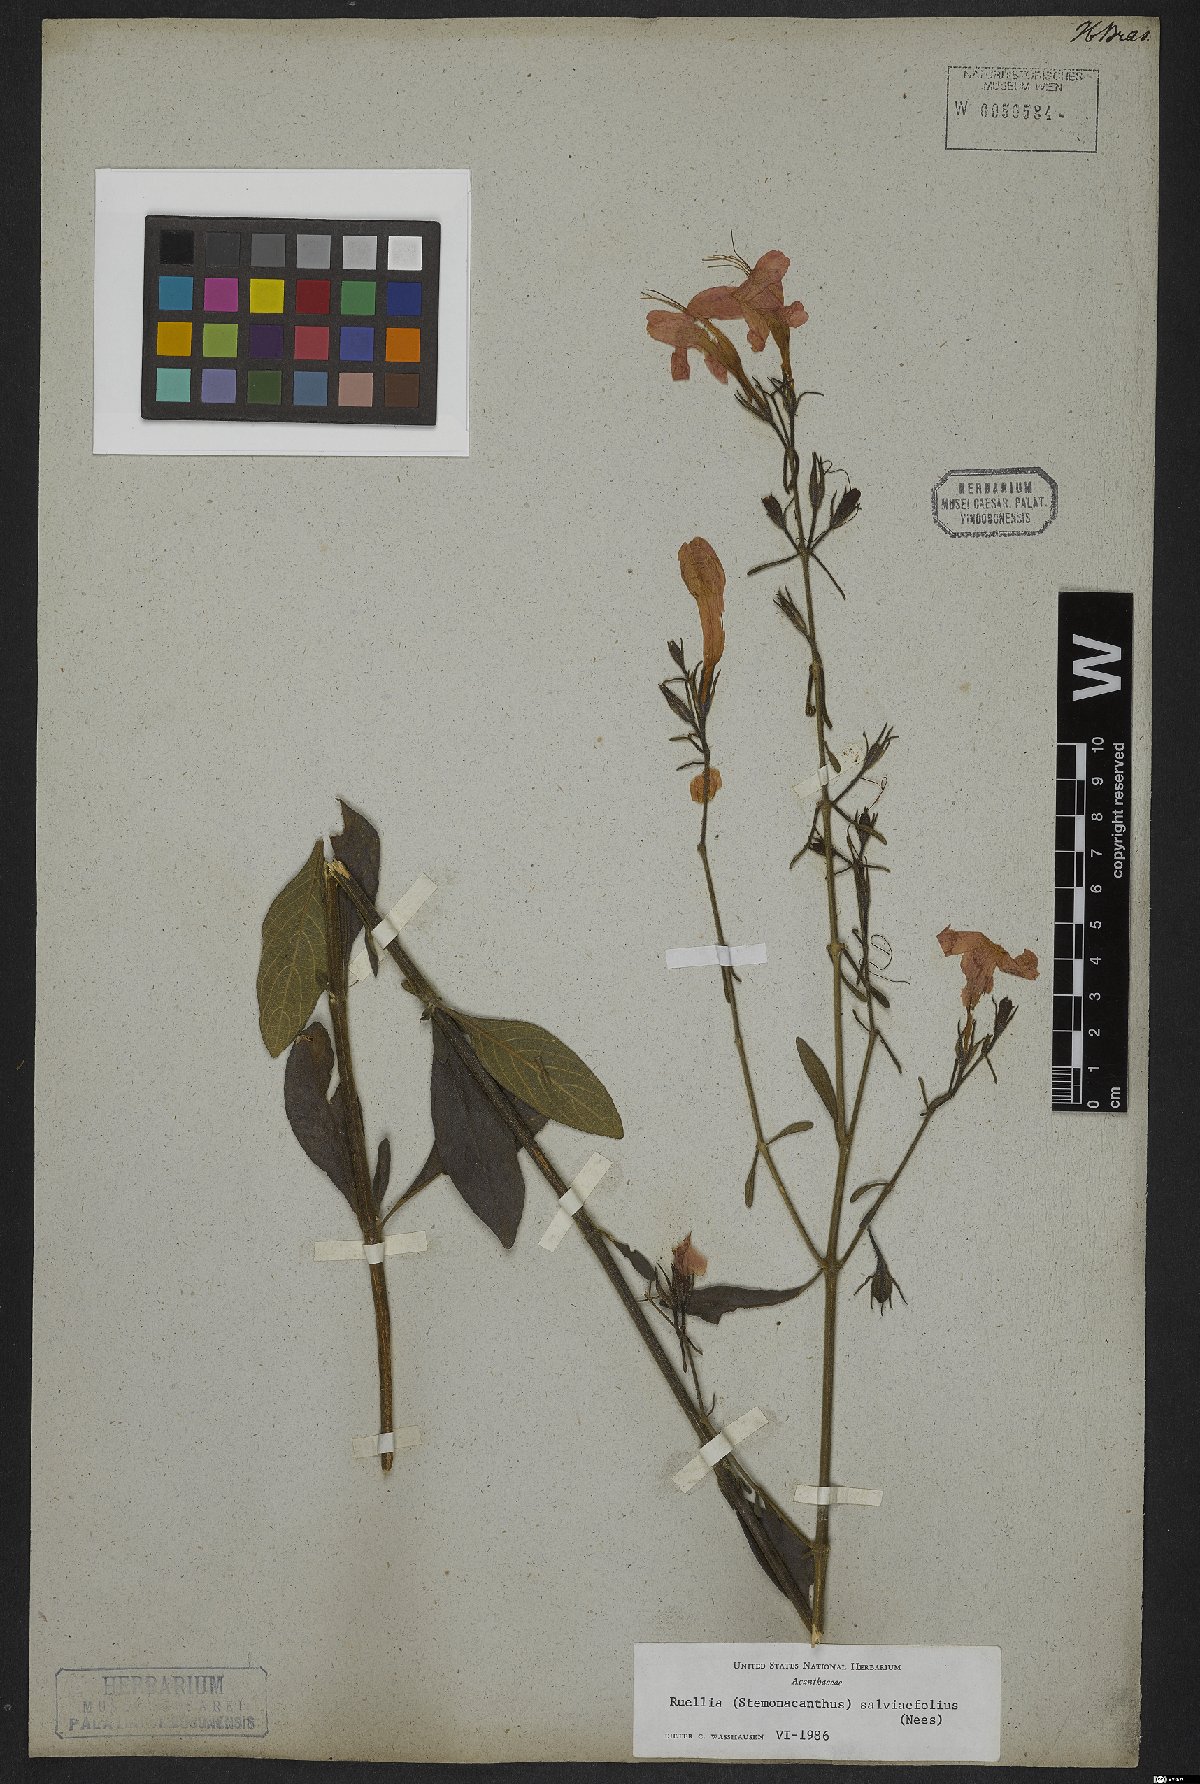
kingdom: Plantae
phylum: Tracheophyta
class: Magnoliopsida
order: Lamiales
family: Acanthaceae
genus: Ruellia
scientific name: Ruellia salviifolia
